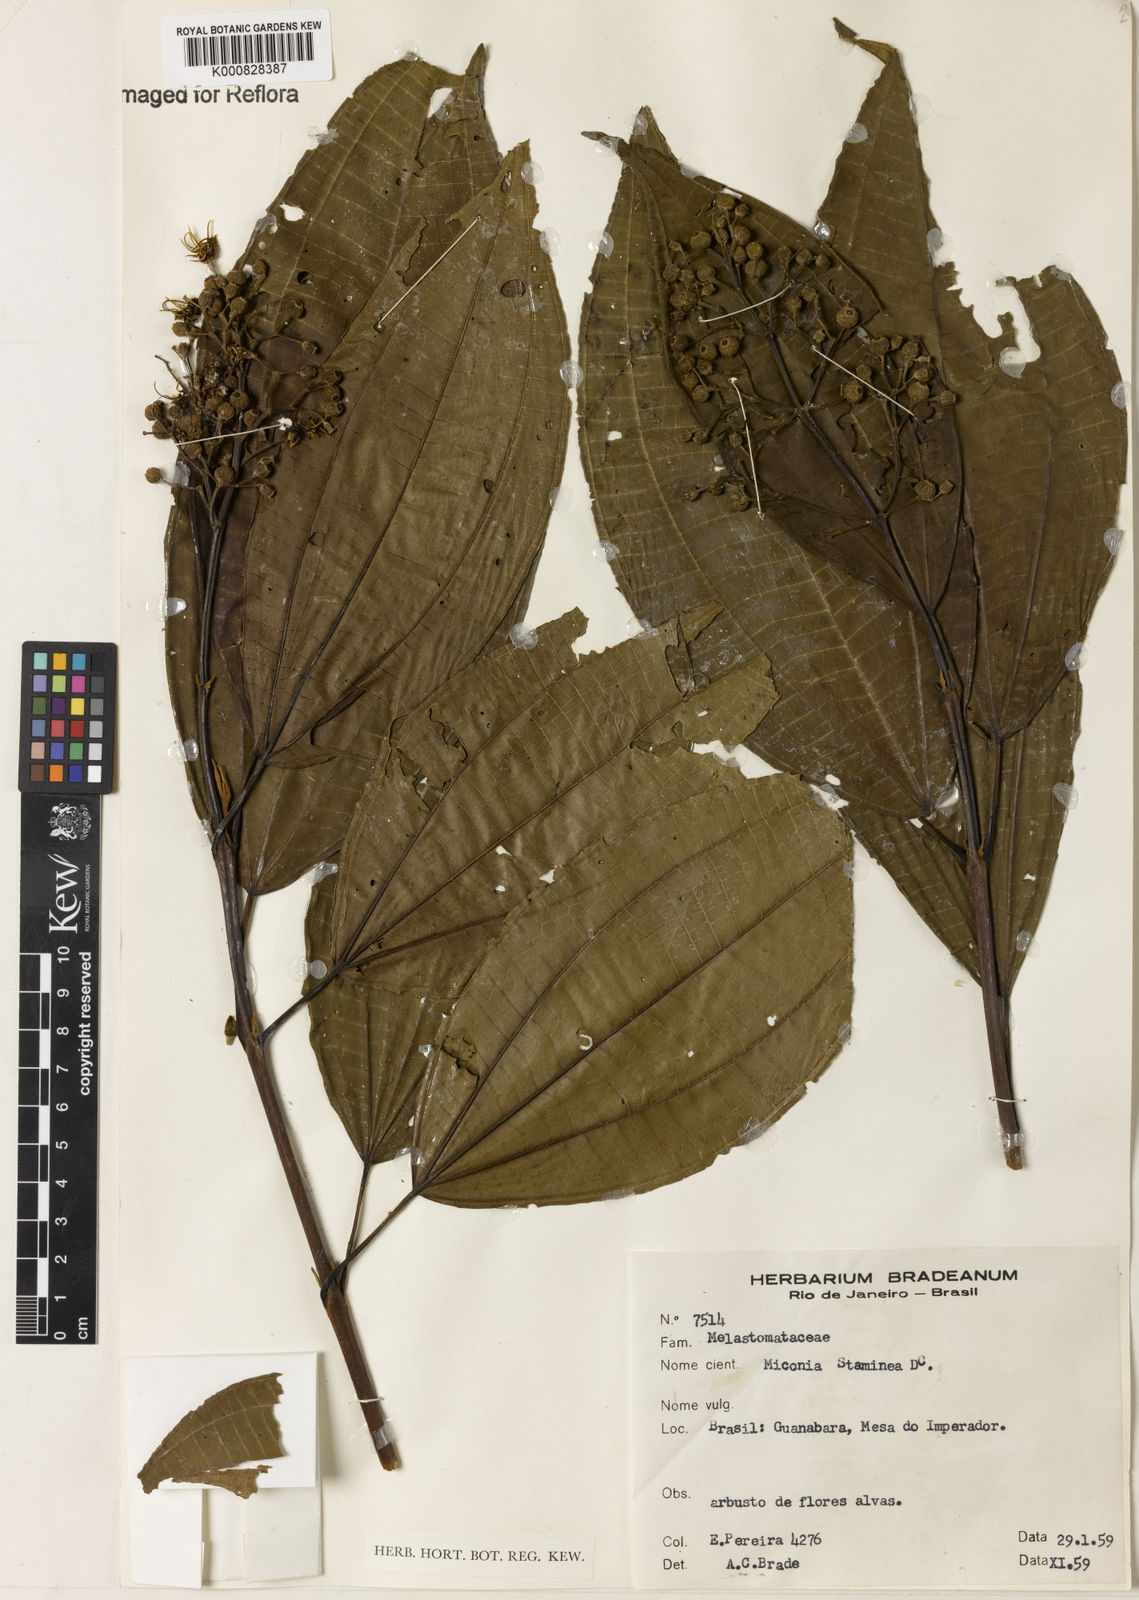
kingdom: Plantae
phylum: Tracheophyta
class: Magnoliopsida
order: Myrtales
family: Melastomataceae
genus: Miconia
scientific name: Miconia staminea
